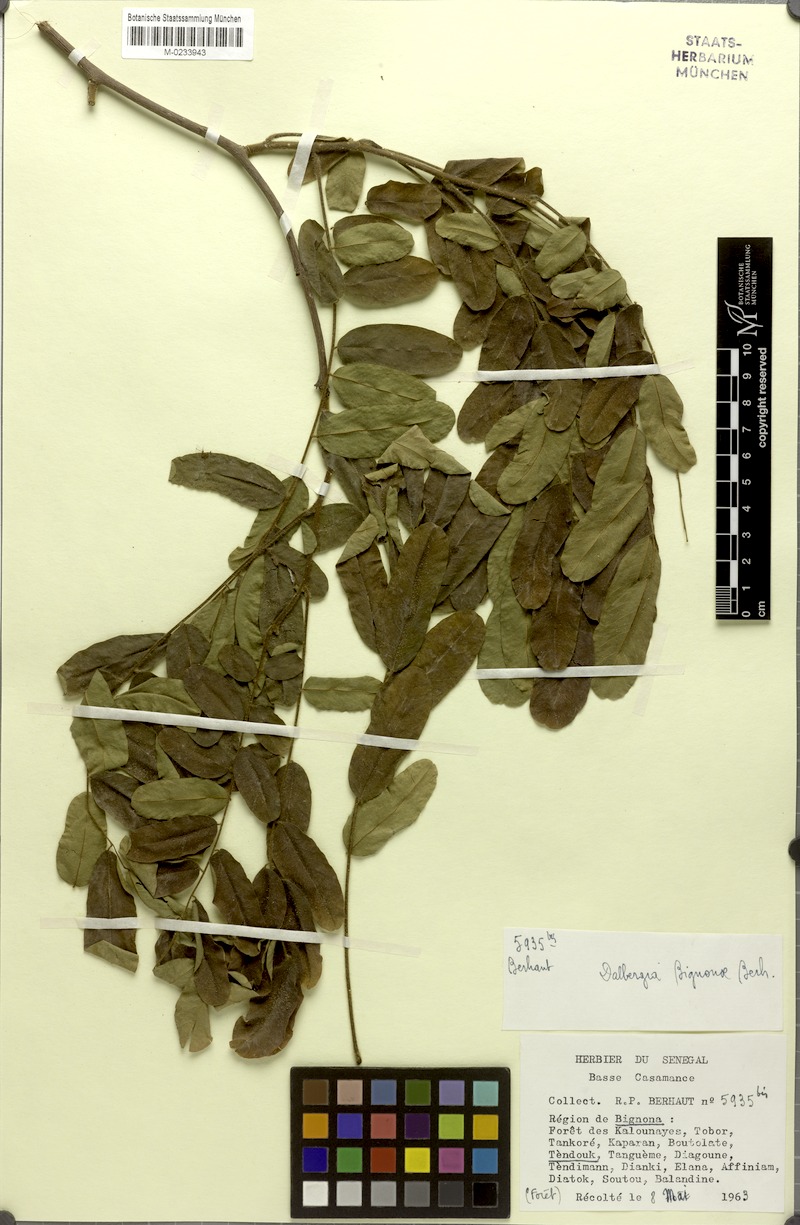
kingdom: Plantae
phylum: Tracheophyta
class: Magnoliopsida
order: Fabales
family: Fabaceae
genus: Dalbergia
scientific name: Dalbergia mayumbensis
